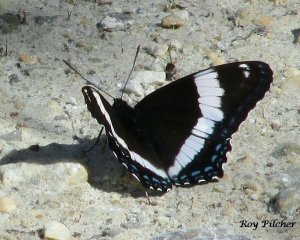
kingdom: Animalia
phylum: Arthropoda
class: Insecta
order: Lepidoptera
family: Nymphalidae
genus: Limenitis
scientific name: Limenitis arthemis
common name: Red-spotted Admiral
